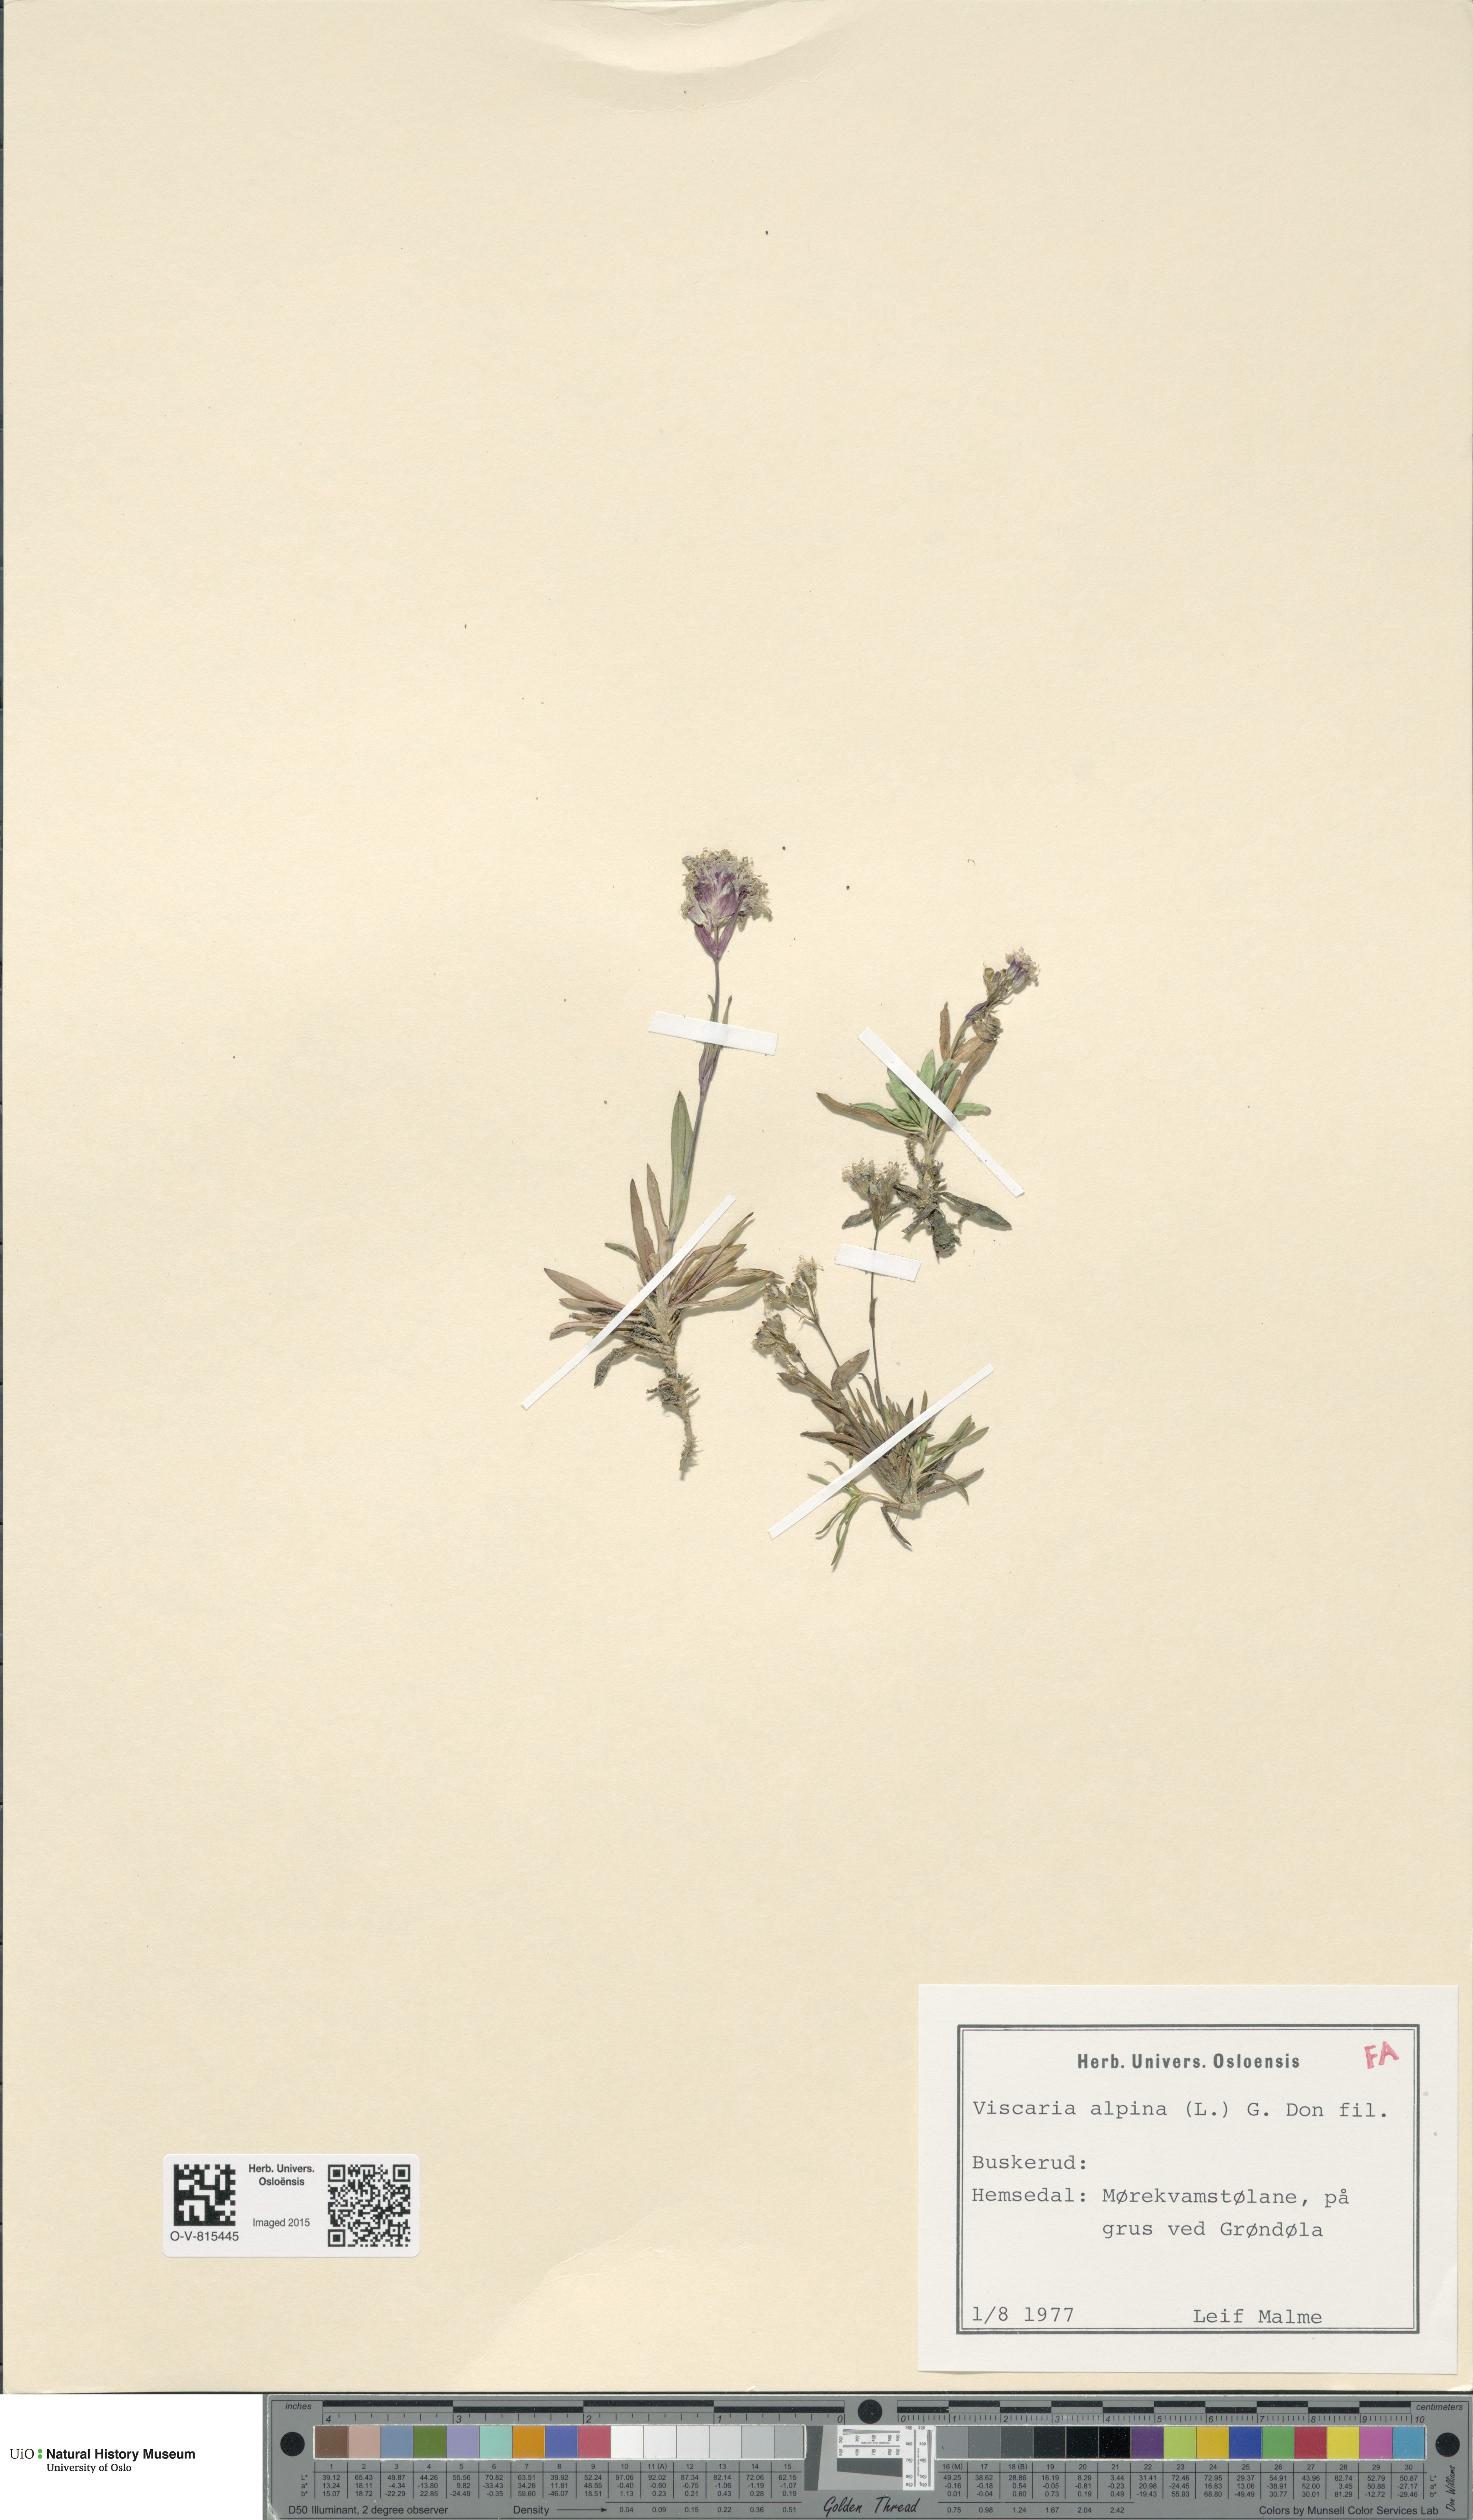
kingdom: Plantae
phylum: Tracheophyta
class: Magnoliopsida
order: Caryophyllales
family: Caryophyllaceae
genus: Viscaria
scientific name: Viscaria alpina
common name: Alpine campion
